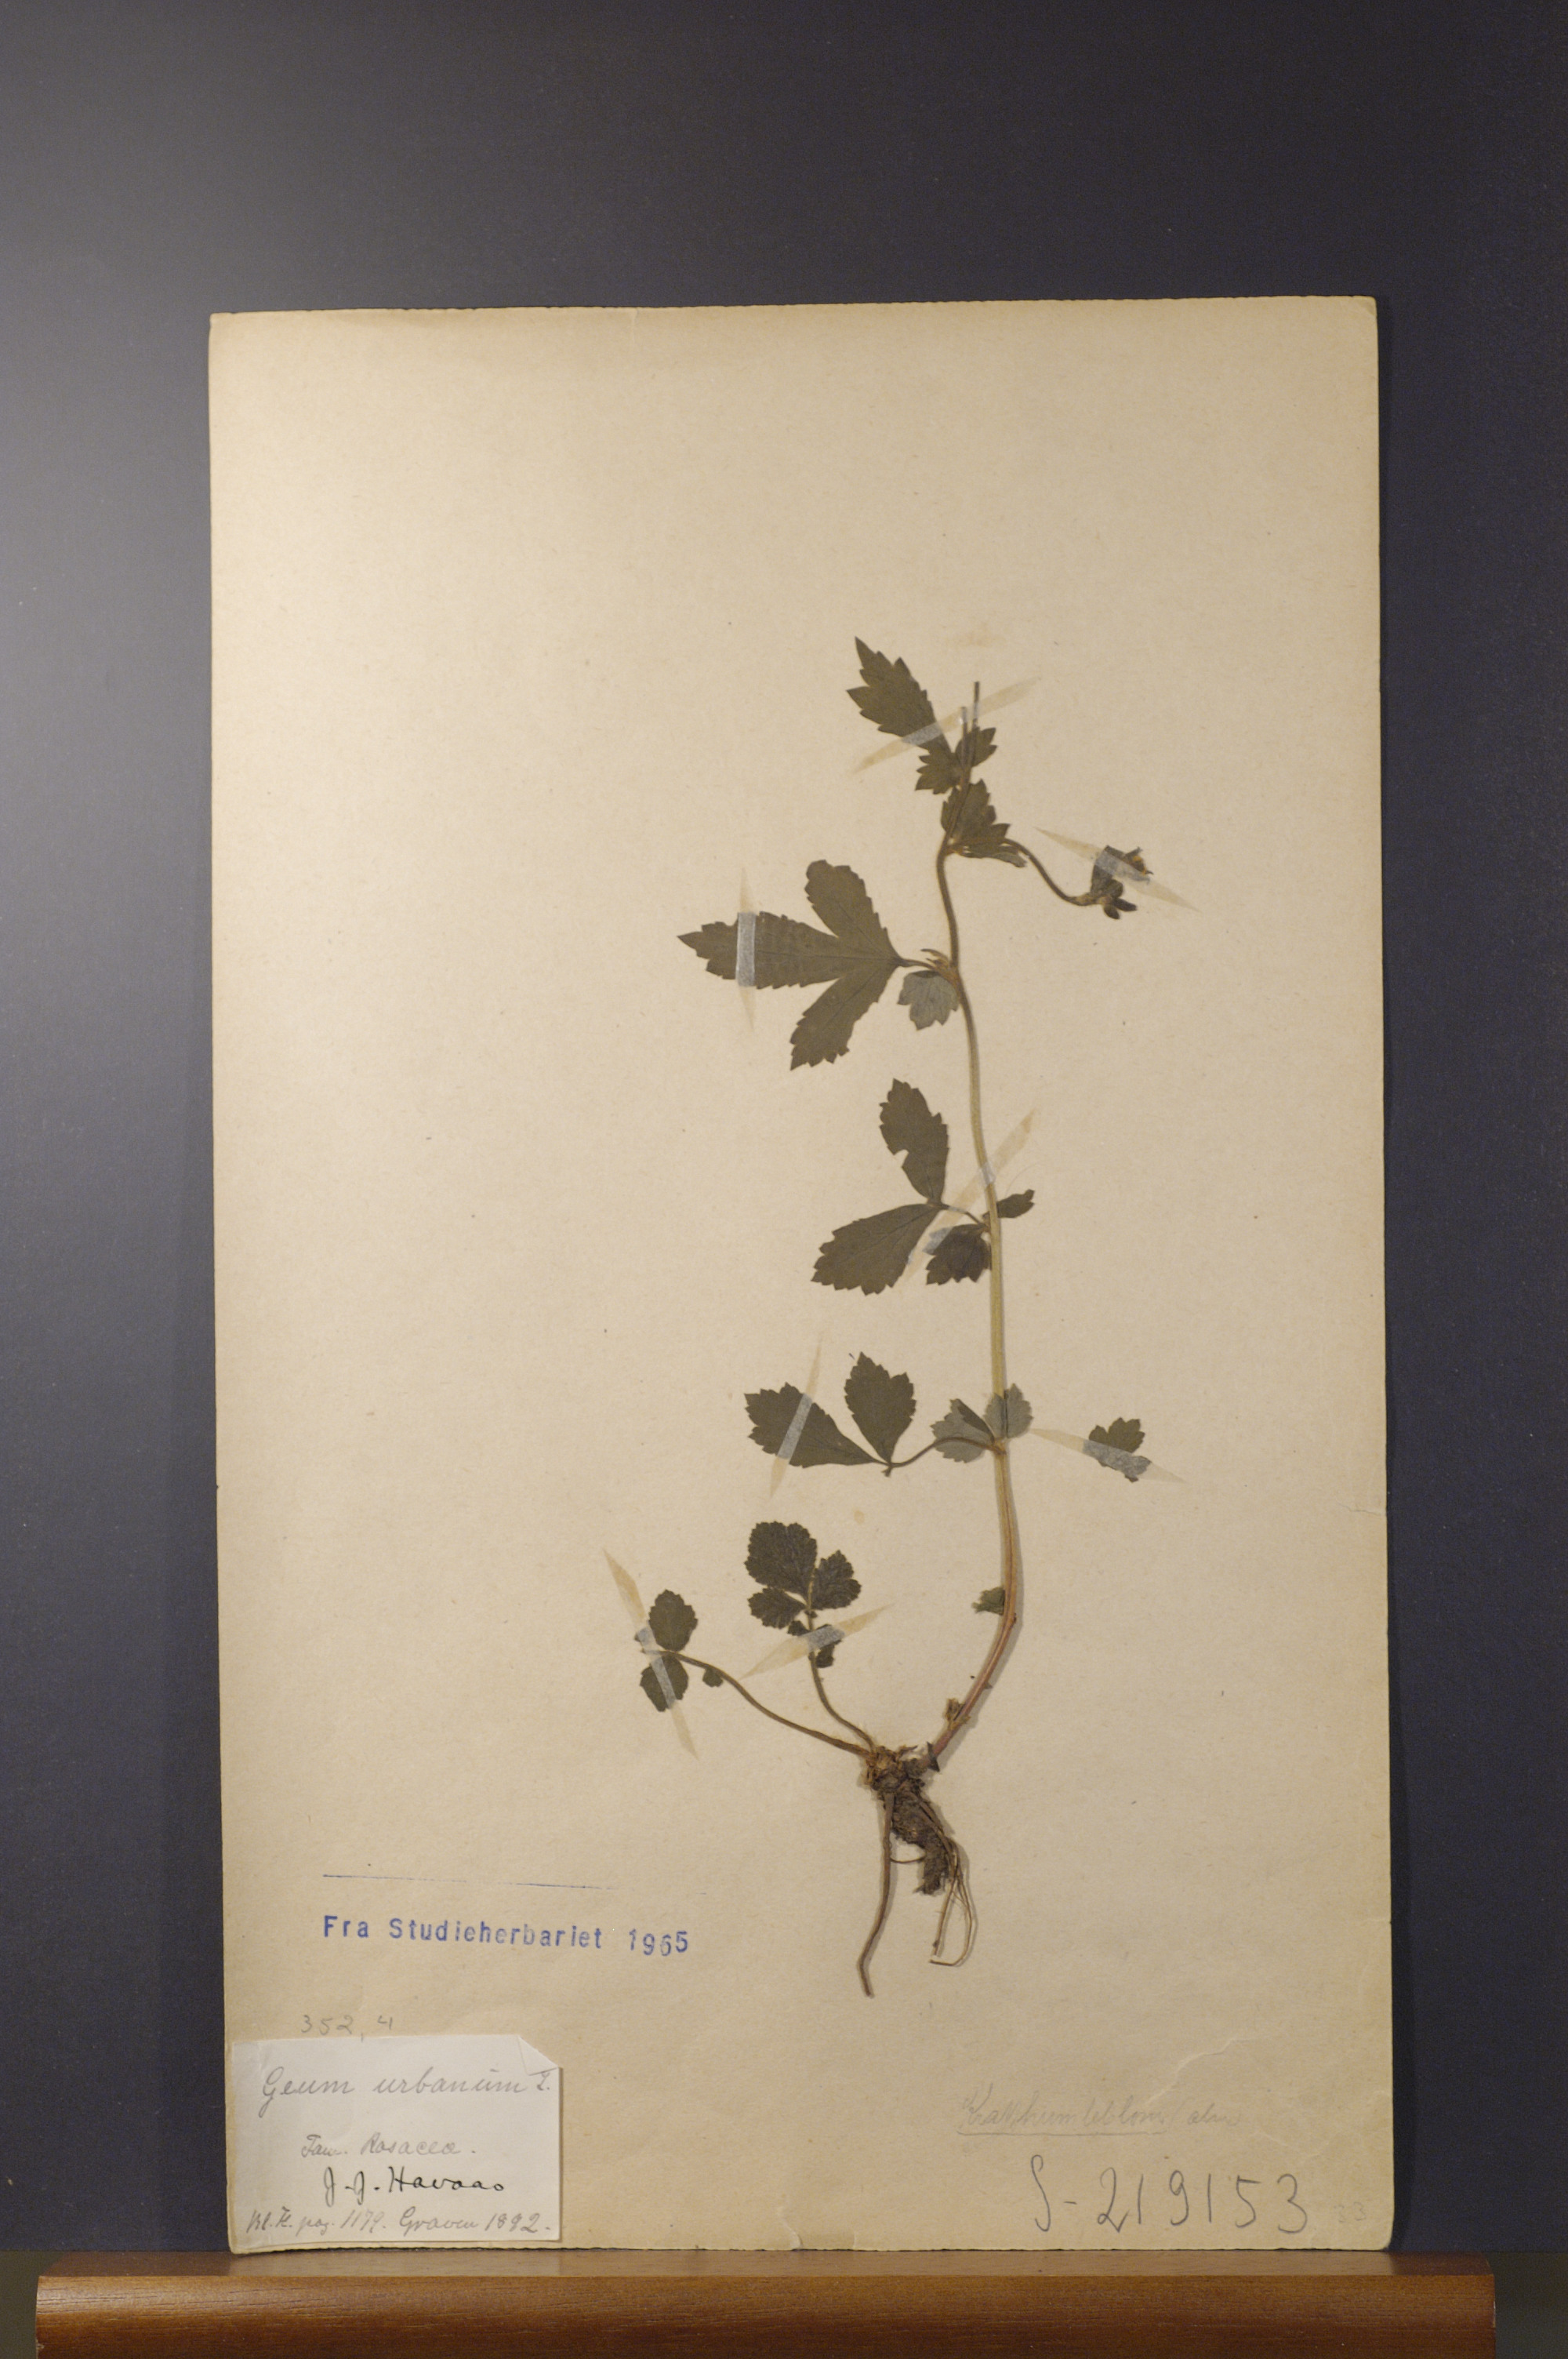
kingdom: Plantae
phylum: Tracheophyta
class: Magnoliopsida
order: Rosales
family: Rosaceae
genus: Geum
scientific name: Geum urbanum
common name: Wood avens
